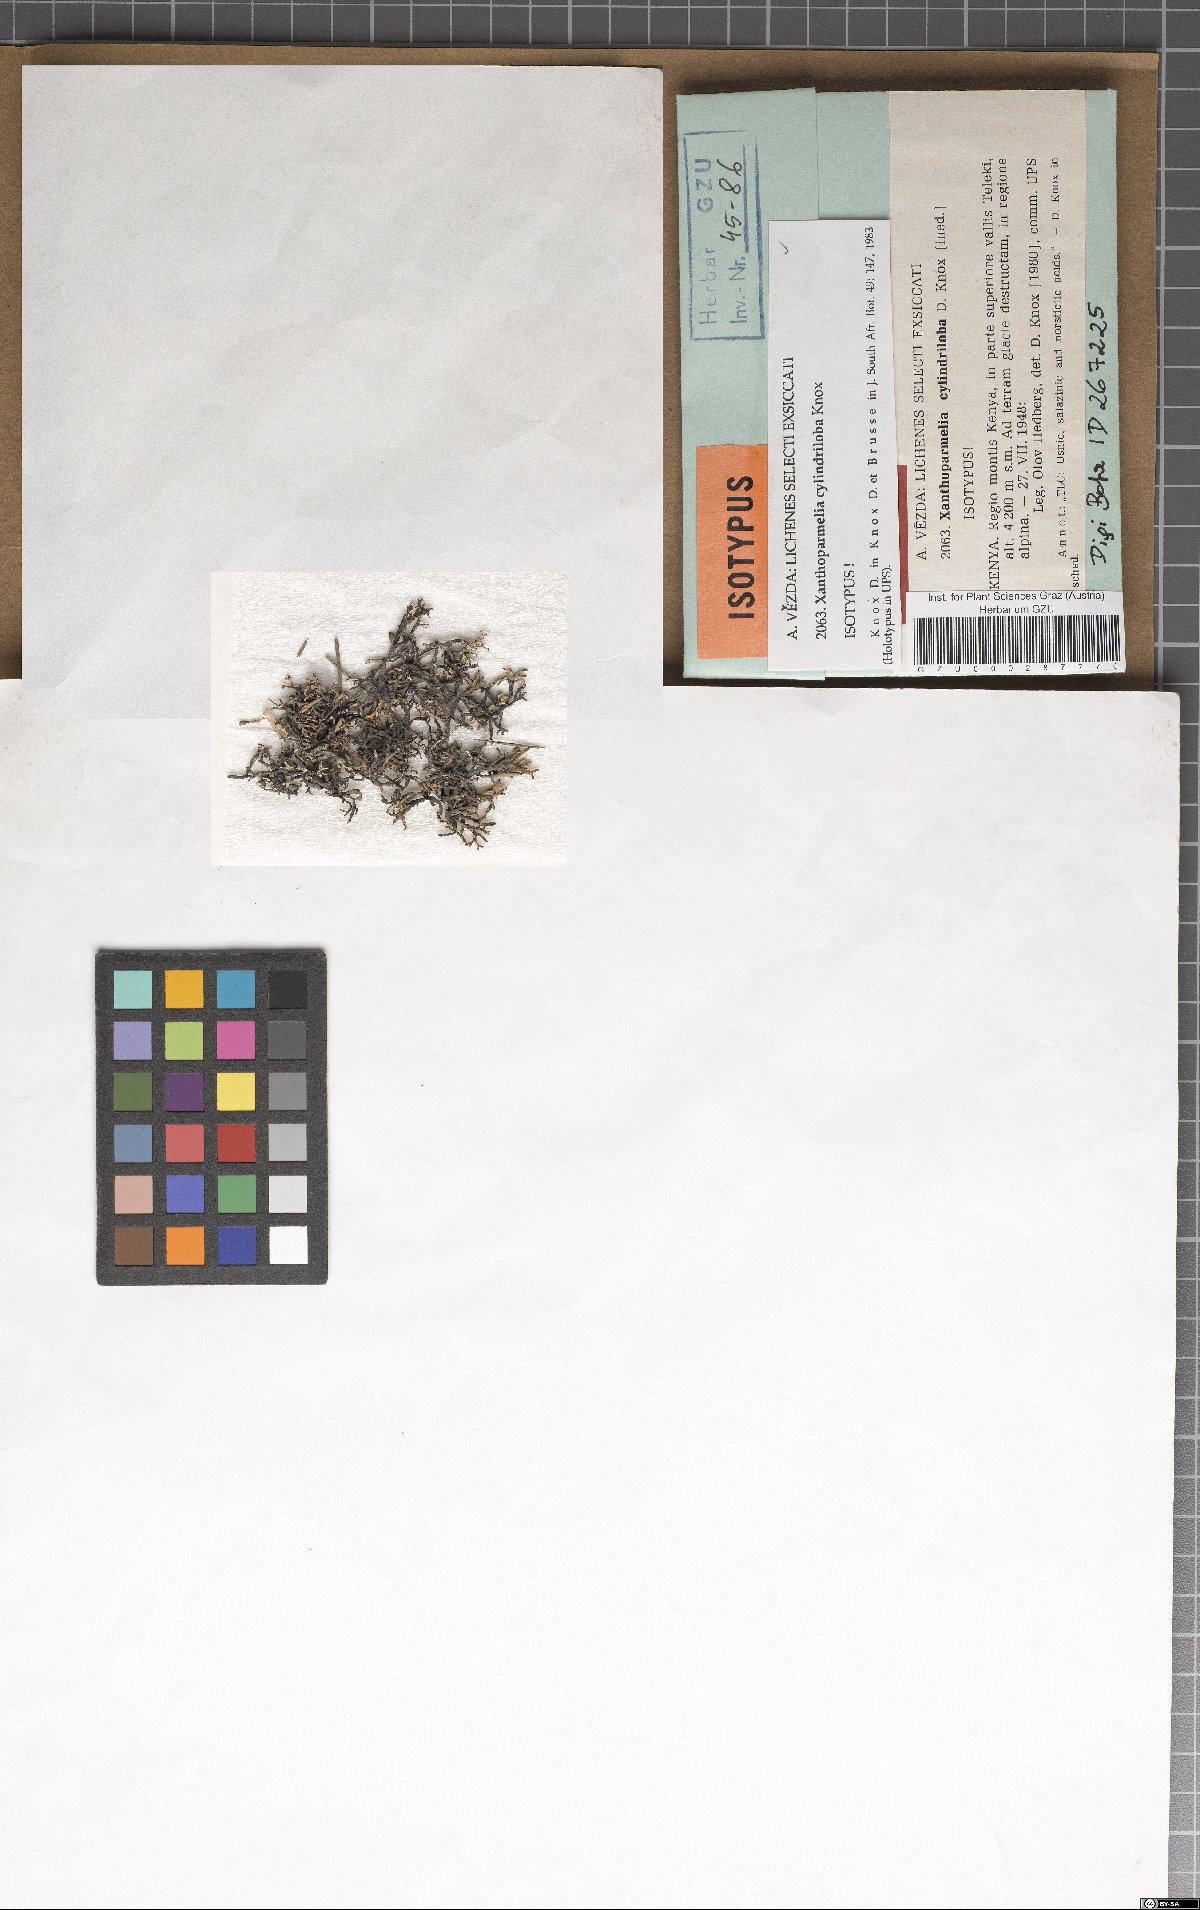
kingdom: Fungi
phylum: Ascomycota
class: Lecanoromycetes
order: Lecanorales
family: Parmeliaceae
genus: Xanthoparmelia
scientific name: Xanthoparmelia
